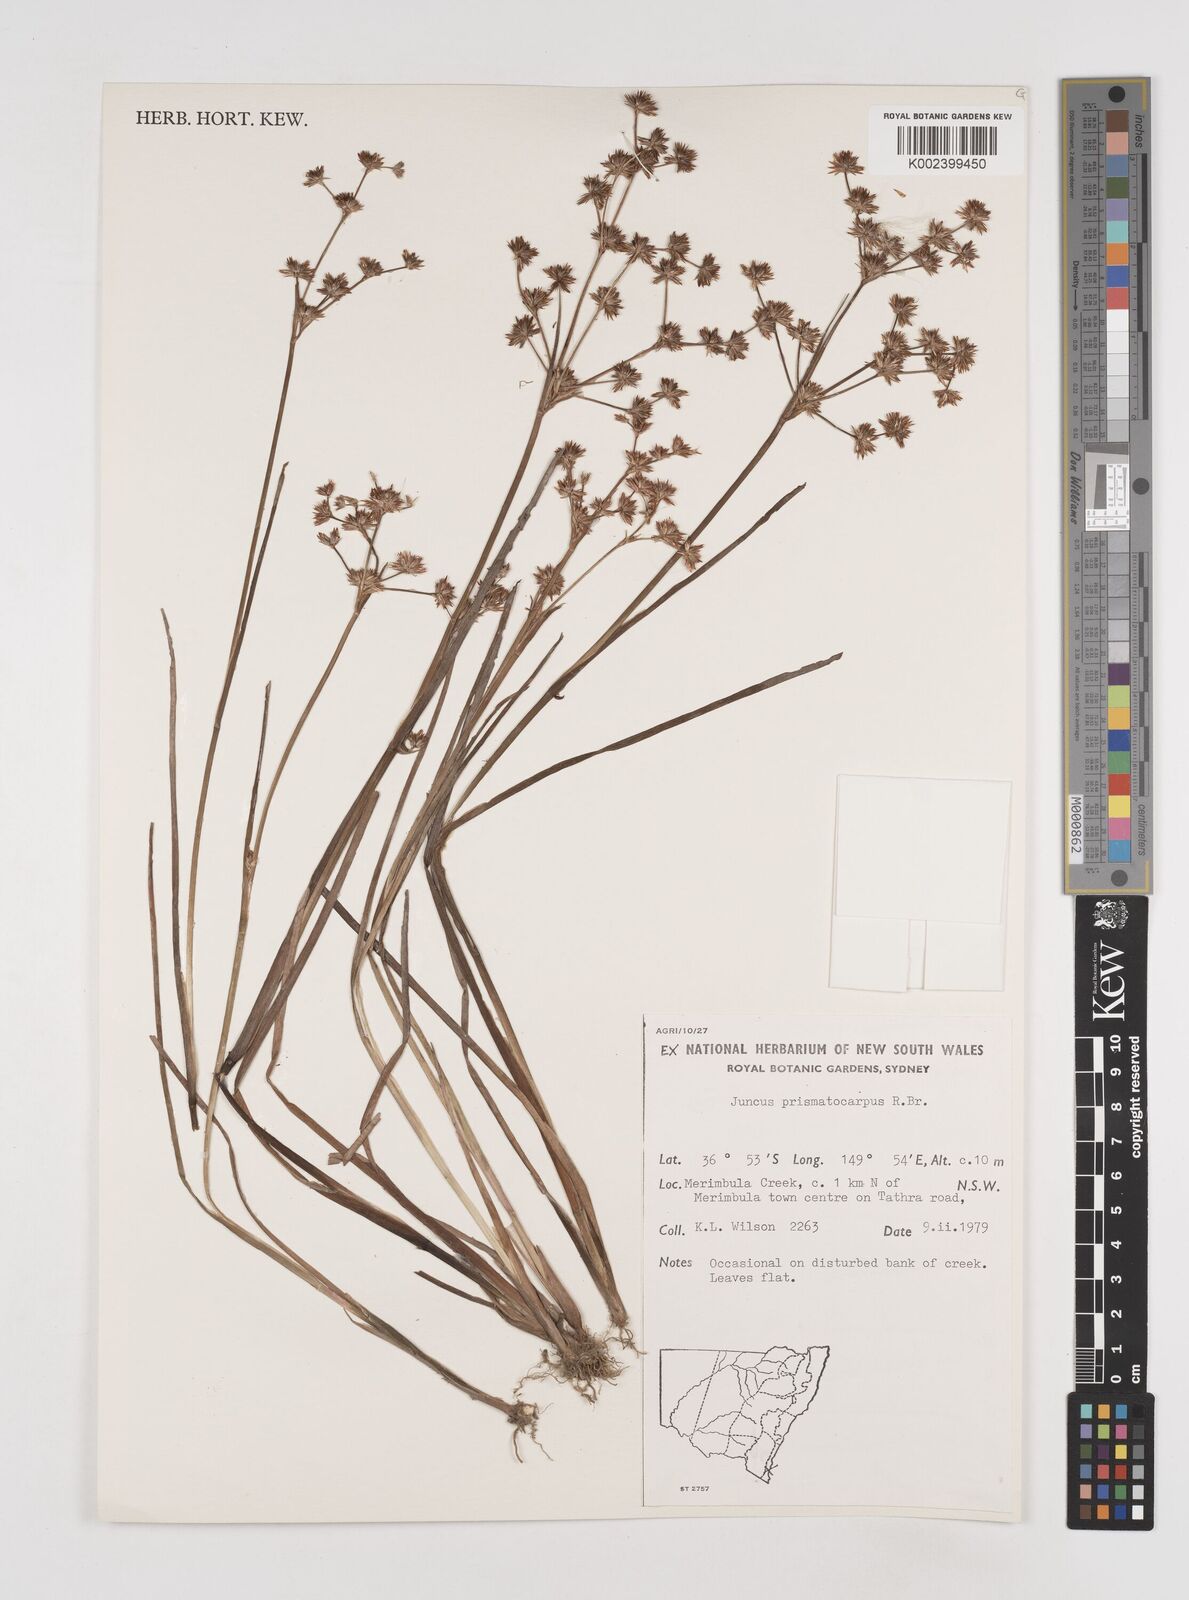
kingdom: Plantae
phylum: Tracheophyta
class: Liliopsida
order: Poales
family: Juncaceae
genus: Juncus
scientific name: Juncus prismatocarpus
